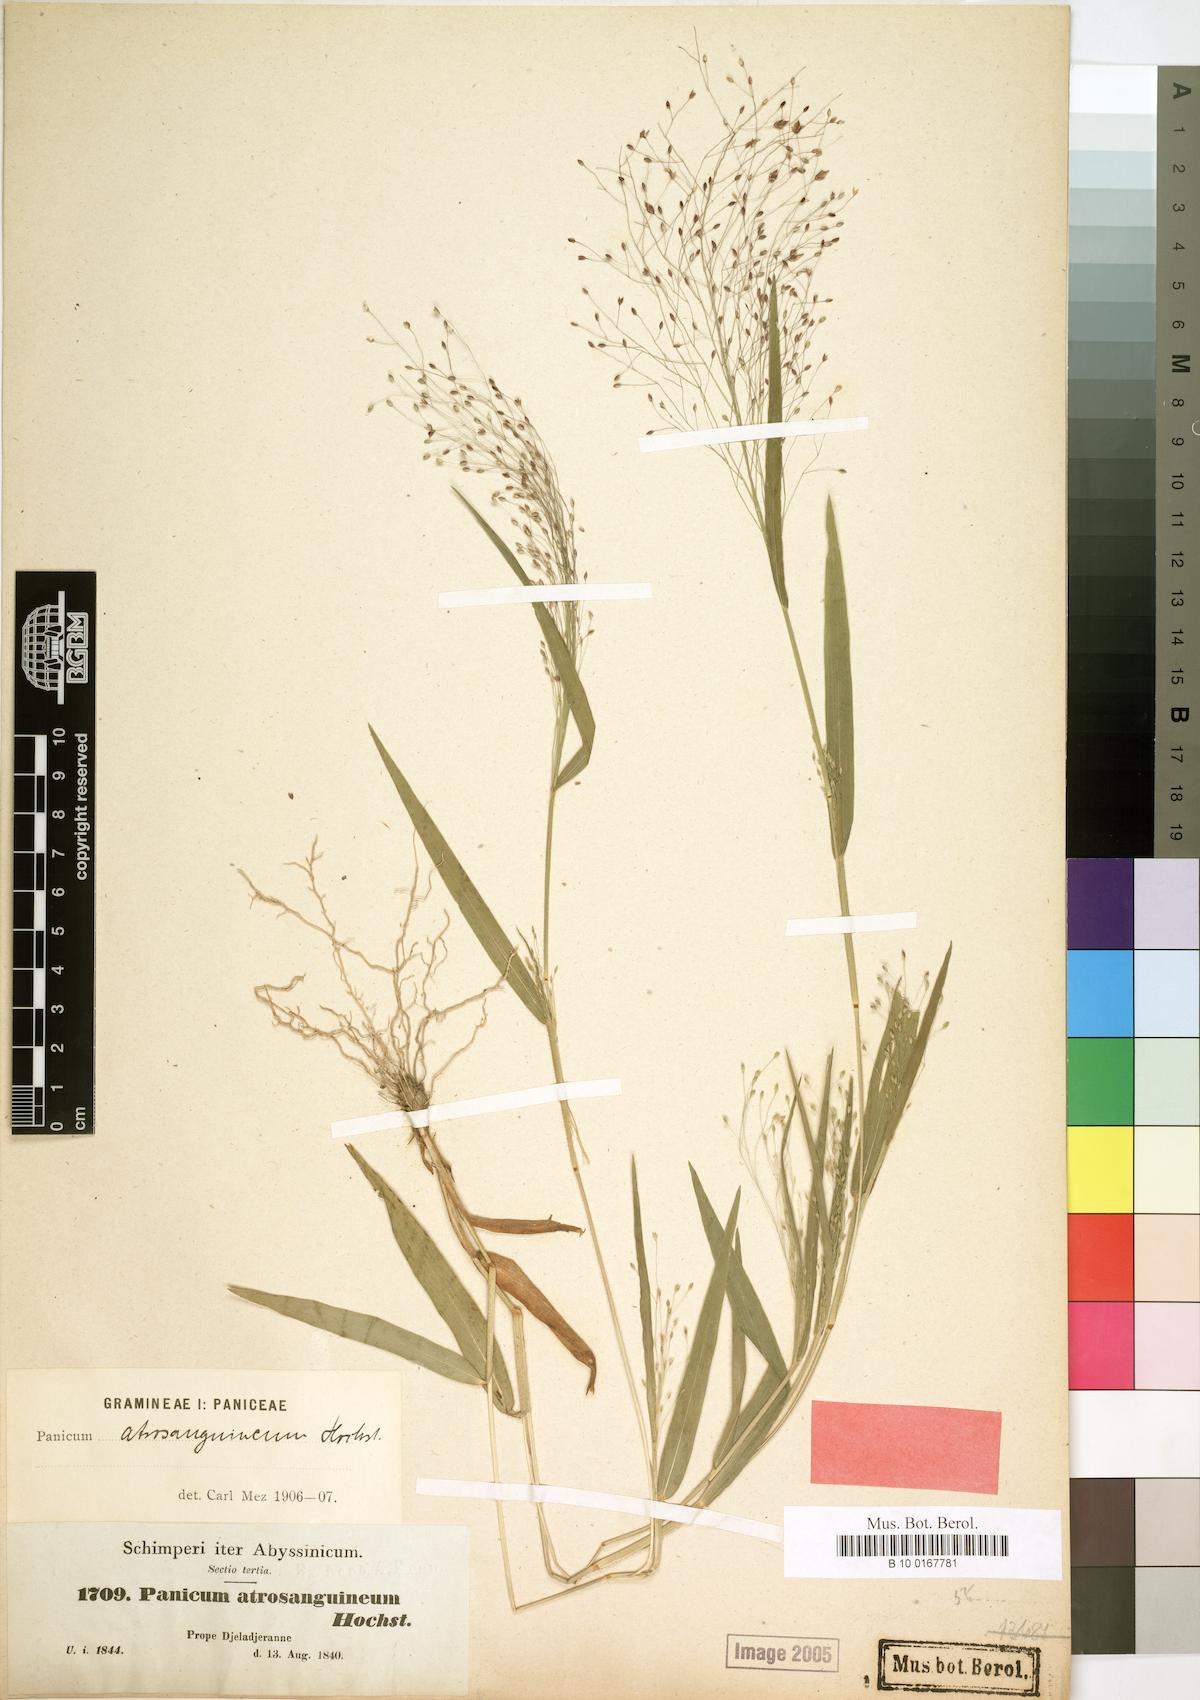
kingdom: Plantae
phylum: Tracheophyta
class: Liliopsida
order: Poales
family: Poaceae
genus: Panicum
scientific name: Panicum atrosanguineum
